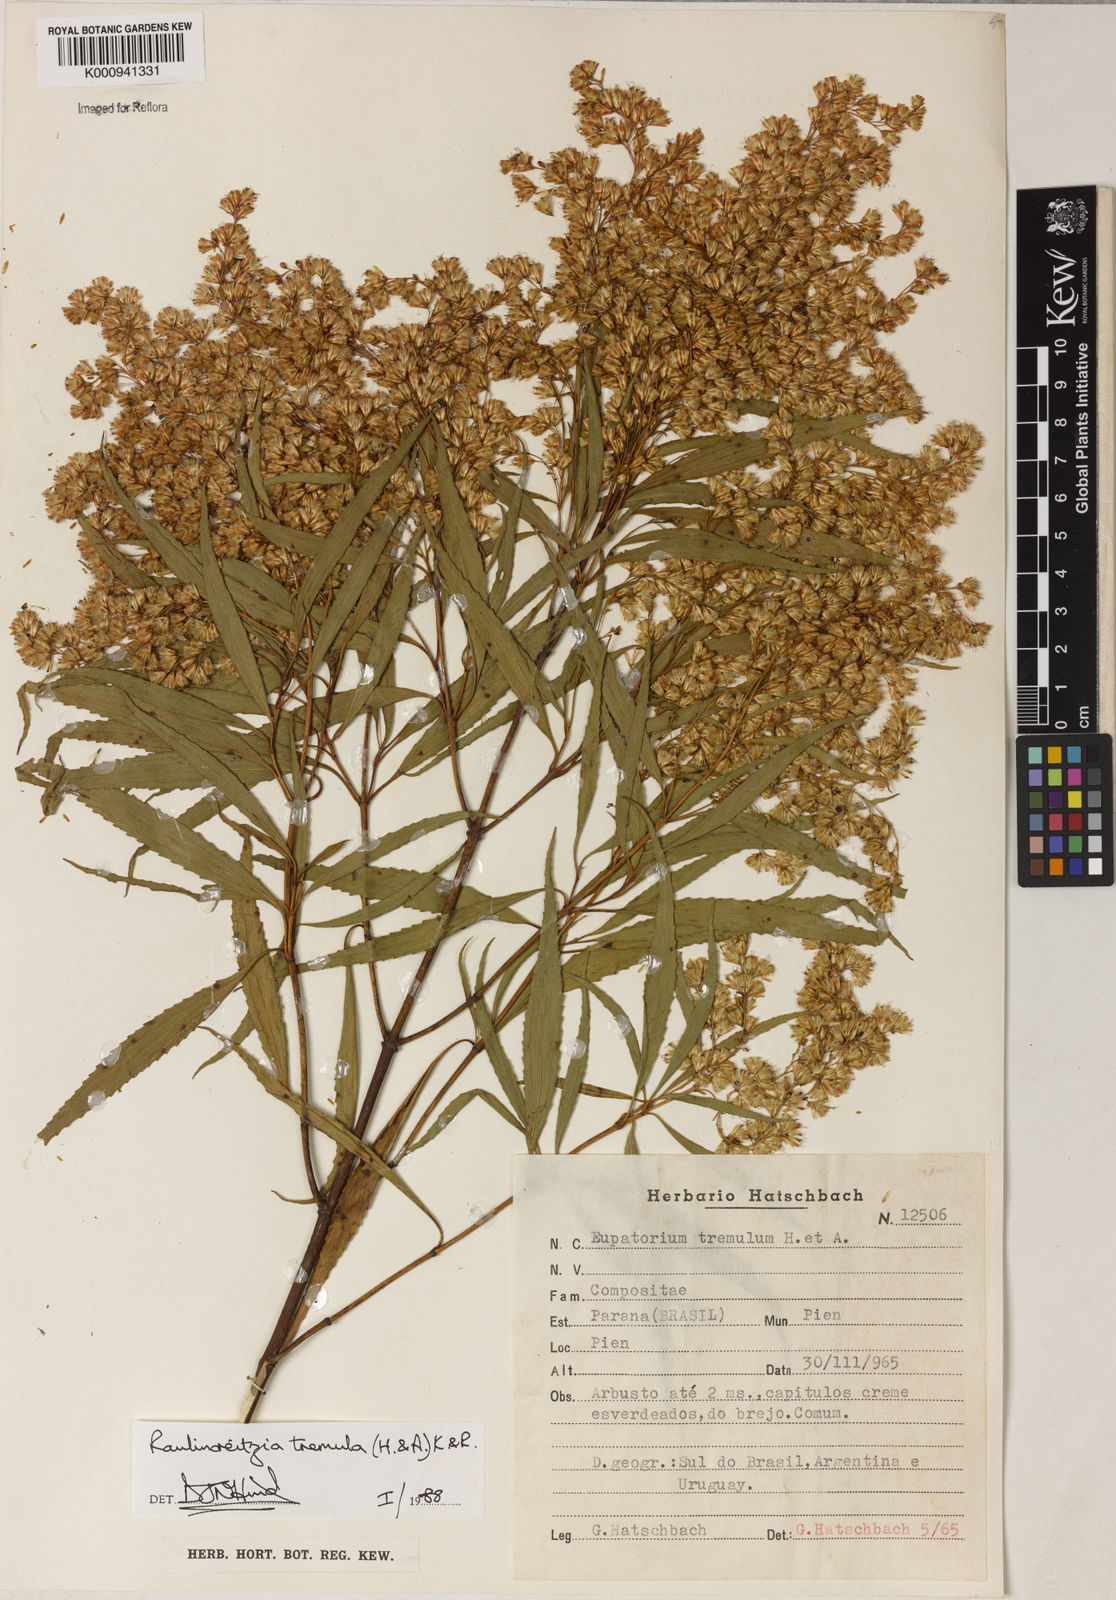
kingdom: Plantae
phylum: Tracheophyta
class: Magnoliopsida
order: Asterales
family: Asteraceae
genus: Raulinoreitzia
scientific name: Raulinoreitzia tremula
